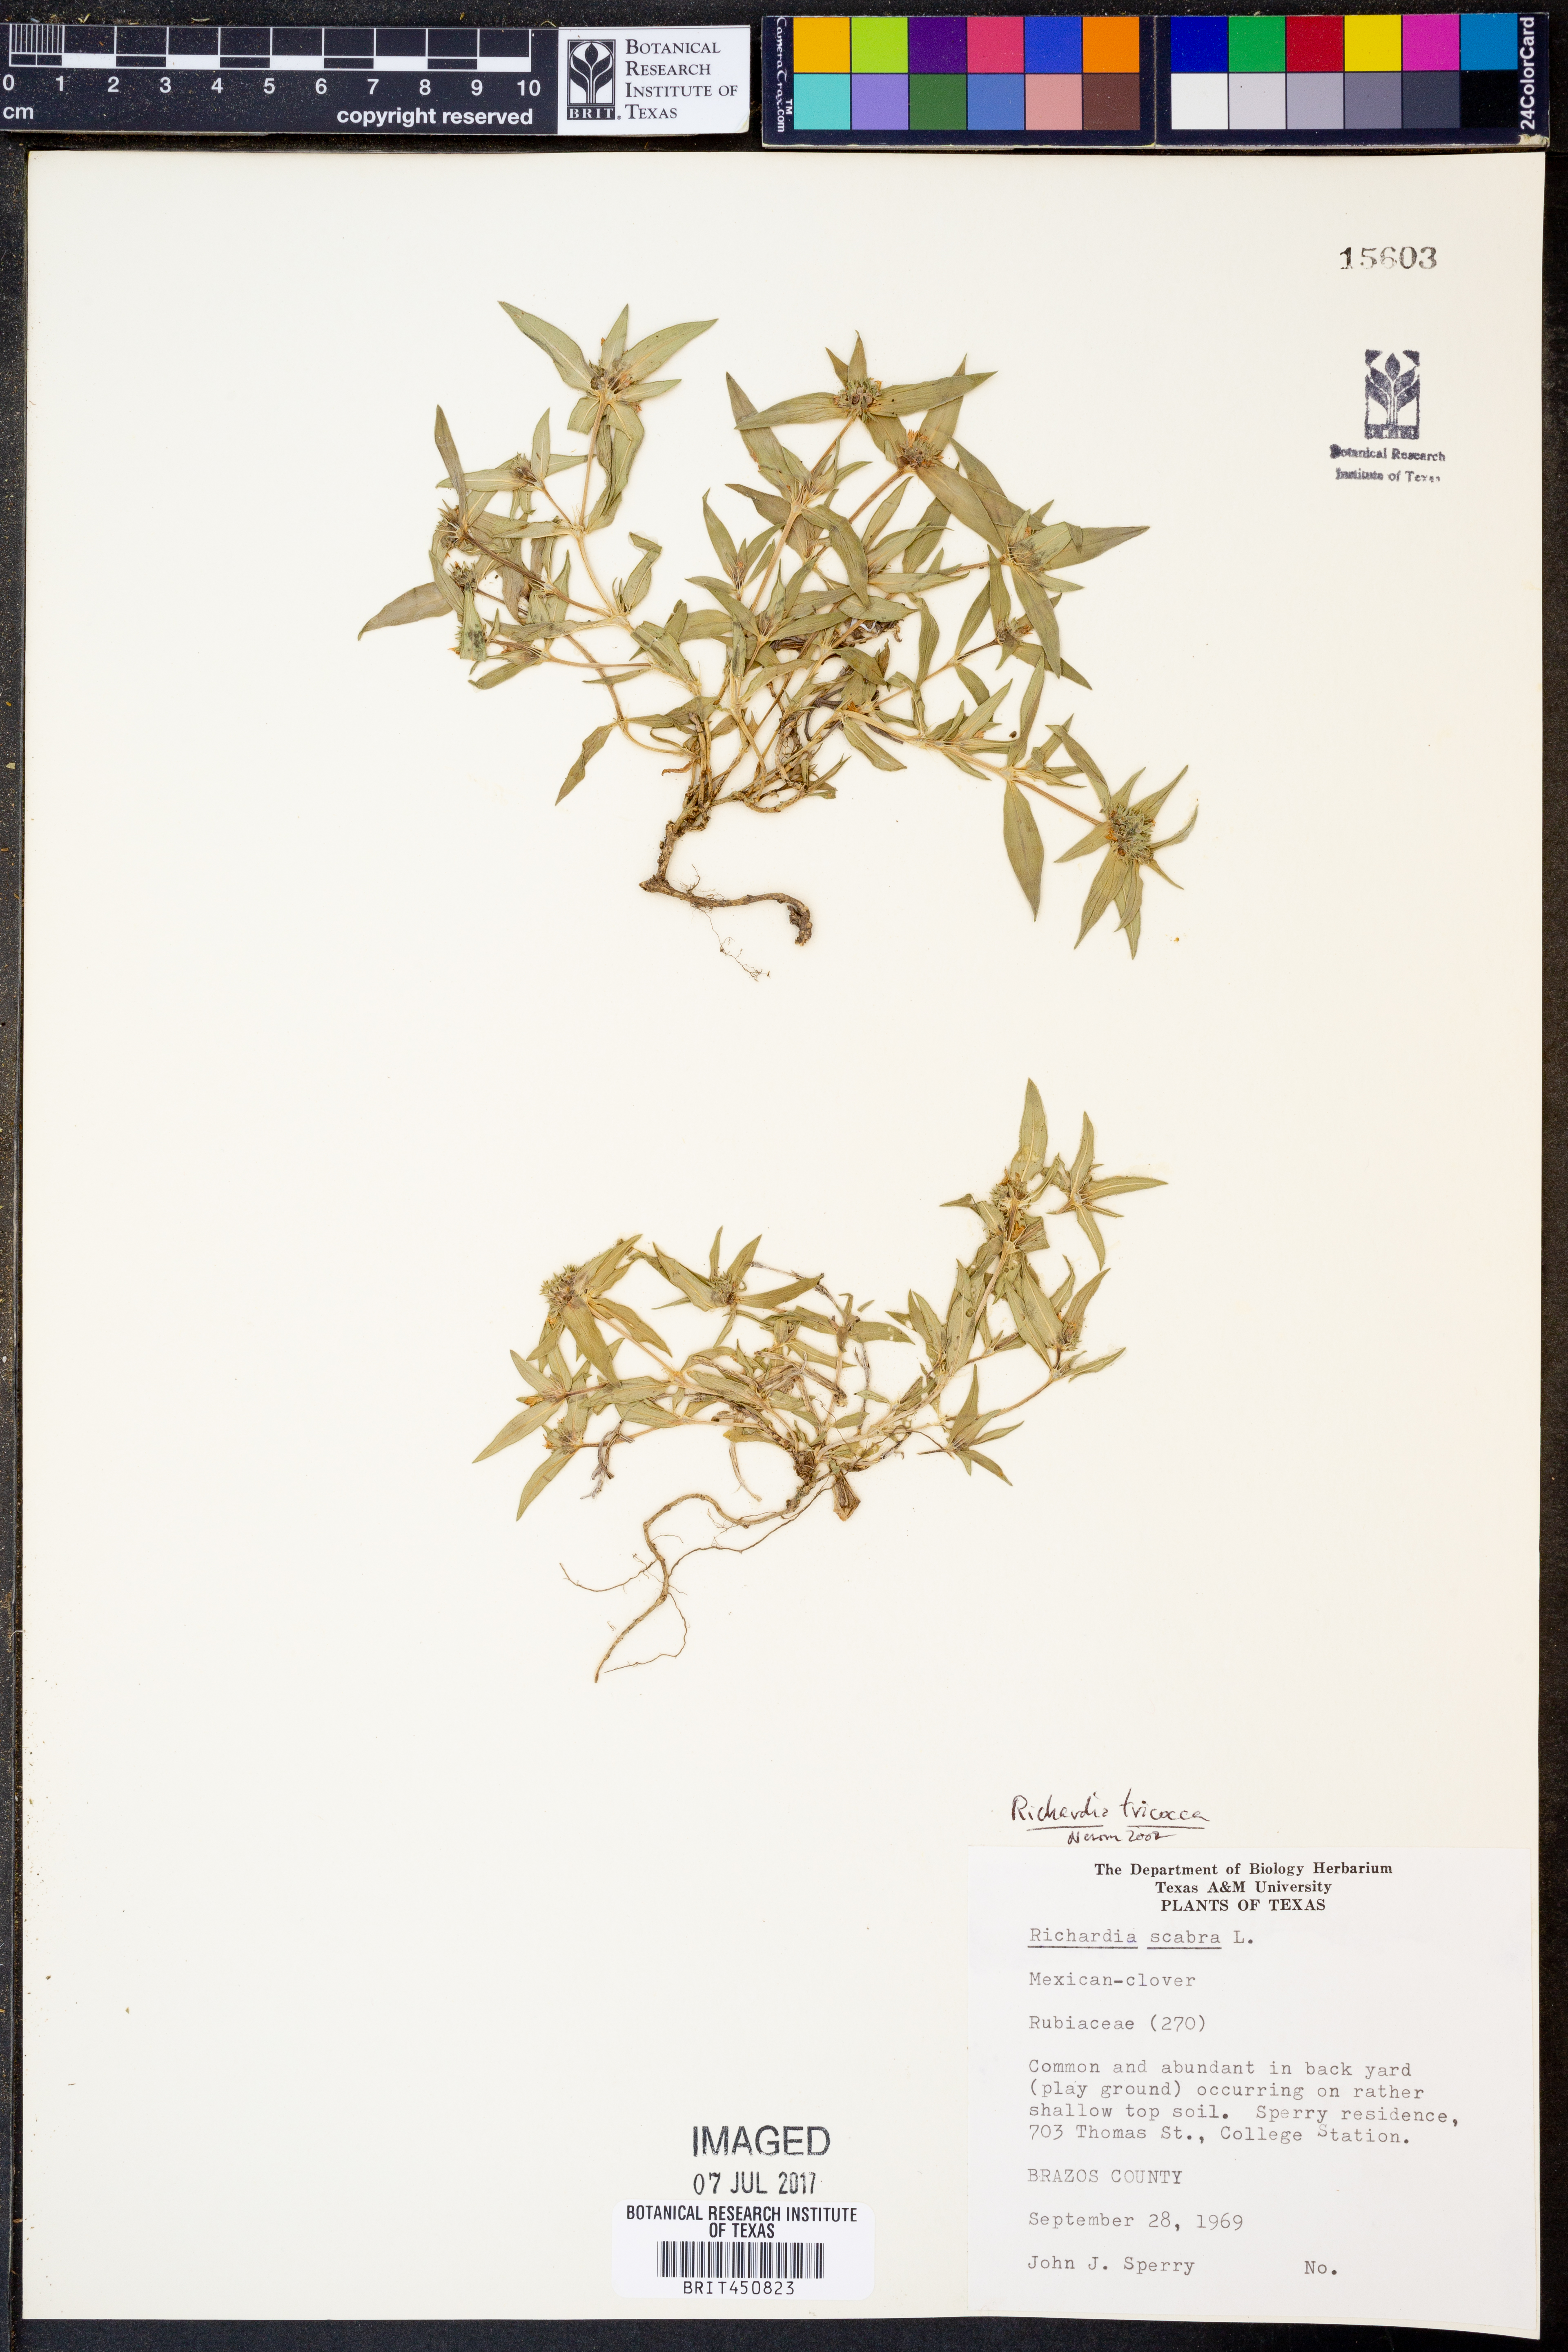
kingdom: Plantae
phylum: Tracheophyta
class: Magnoliopsida
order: Gentianales
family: Rubiaceae
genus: Richardia
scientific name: Richardia tricocca
